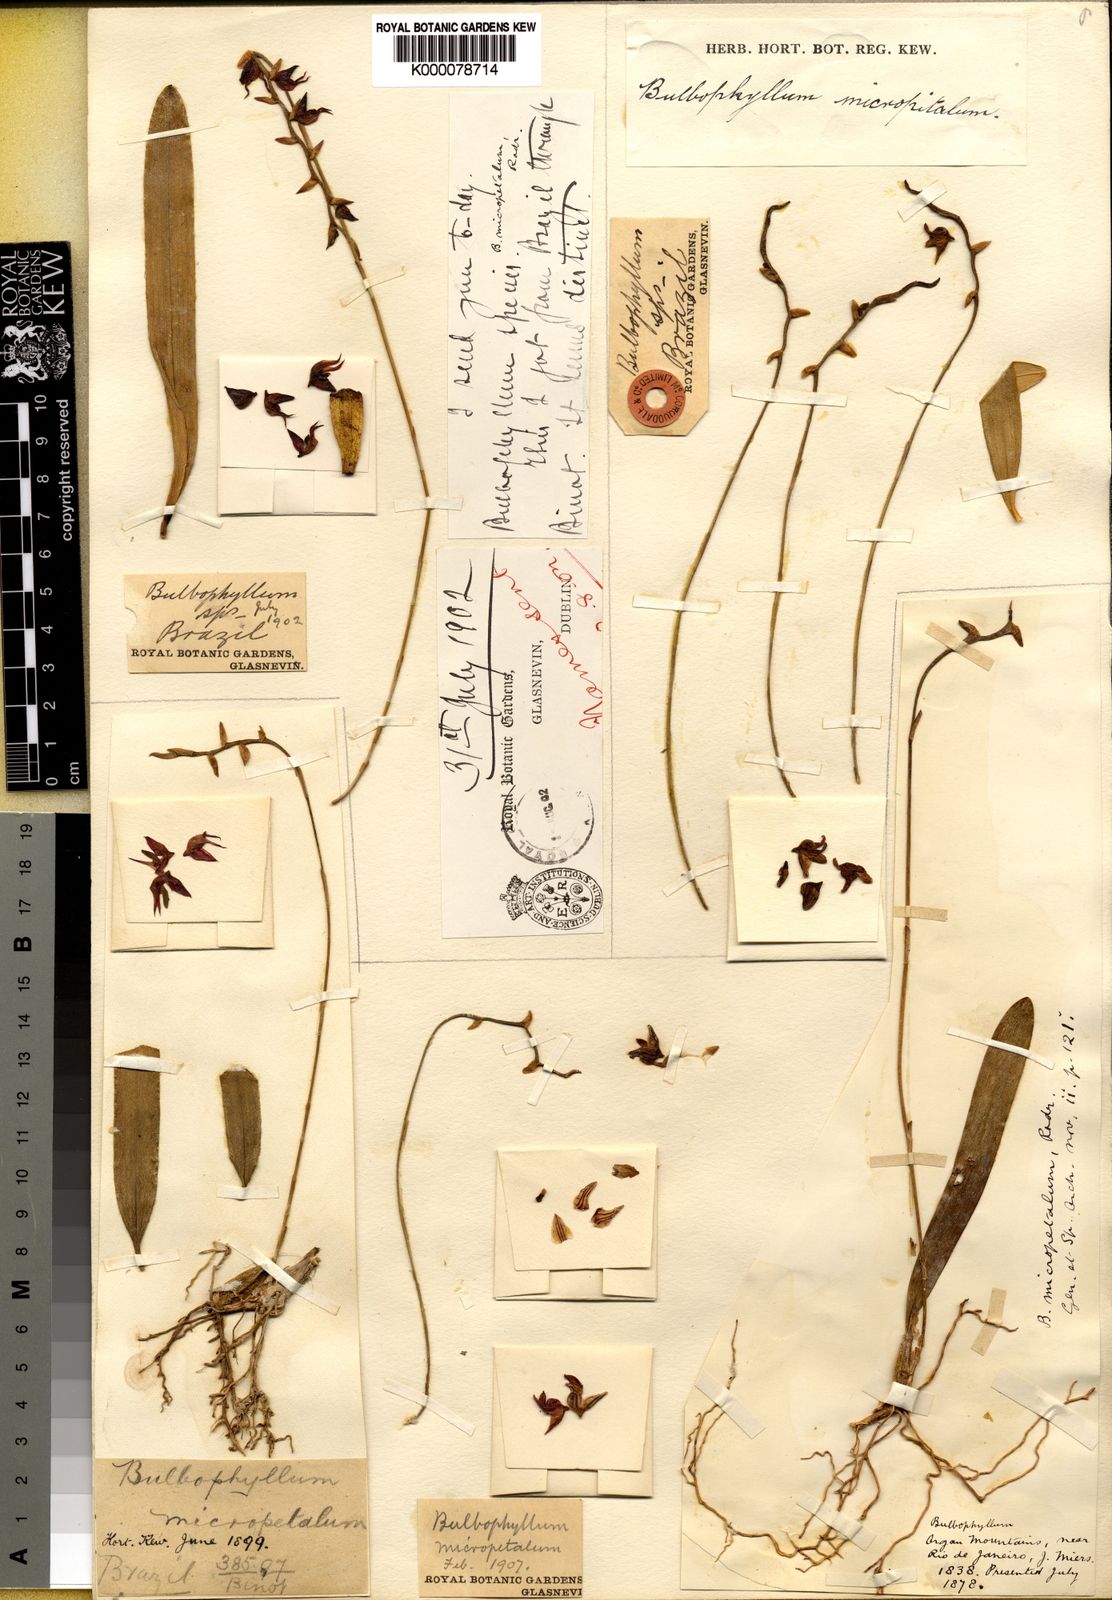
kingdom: Plantae
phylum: Tracheophyta
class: Liliopsida
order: Asparagales
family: Orchidaceae
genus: Bulbophyllum
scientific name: Bulbophyllum micropetalum
